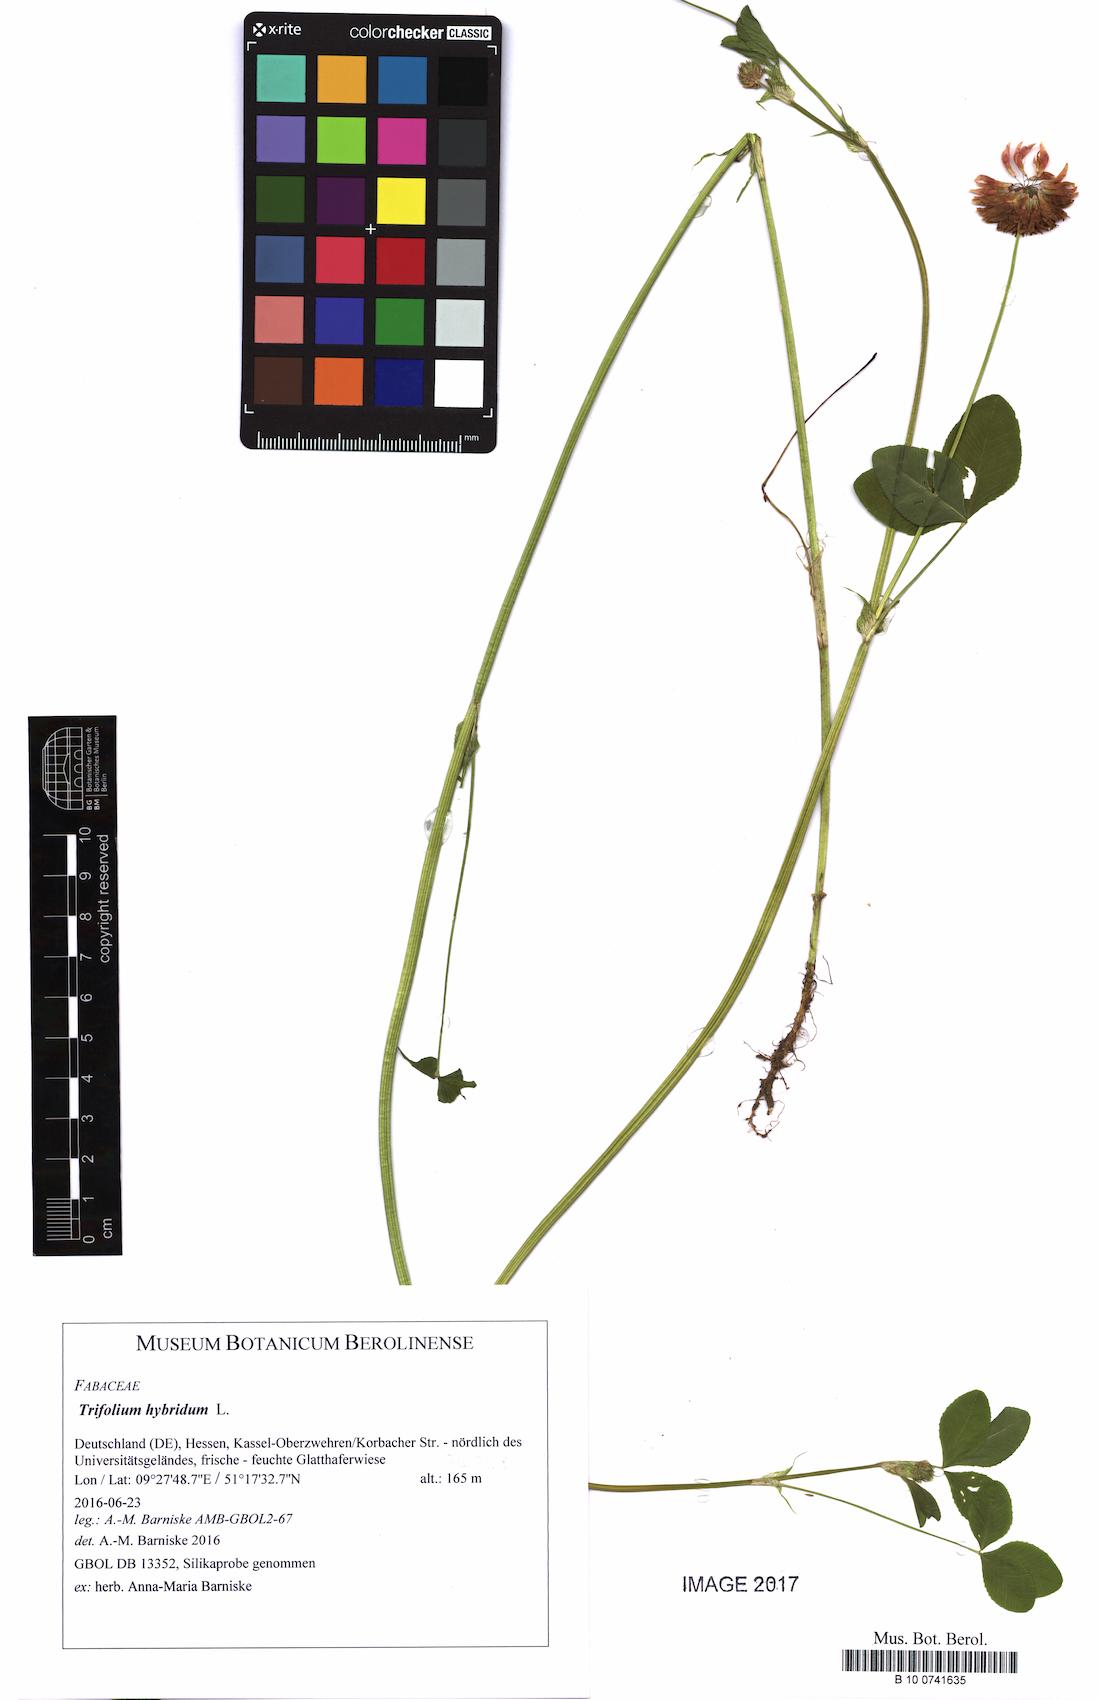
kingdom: Plantae
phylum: Tracheophyta
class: Magnoliopsida
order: Fabales
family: Fabaceae
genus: Trifolium
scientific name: Trifolium hybridum
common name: Alsike clover
